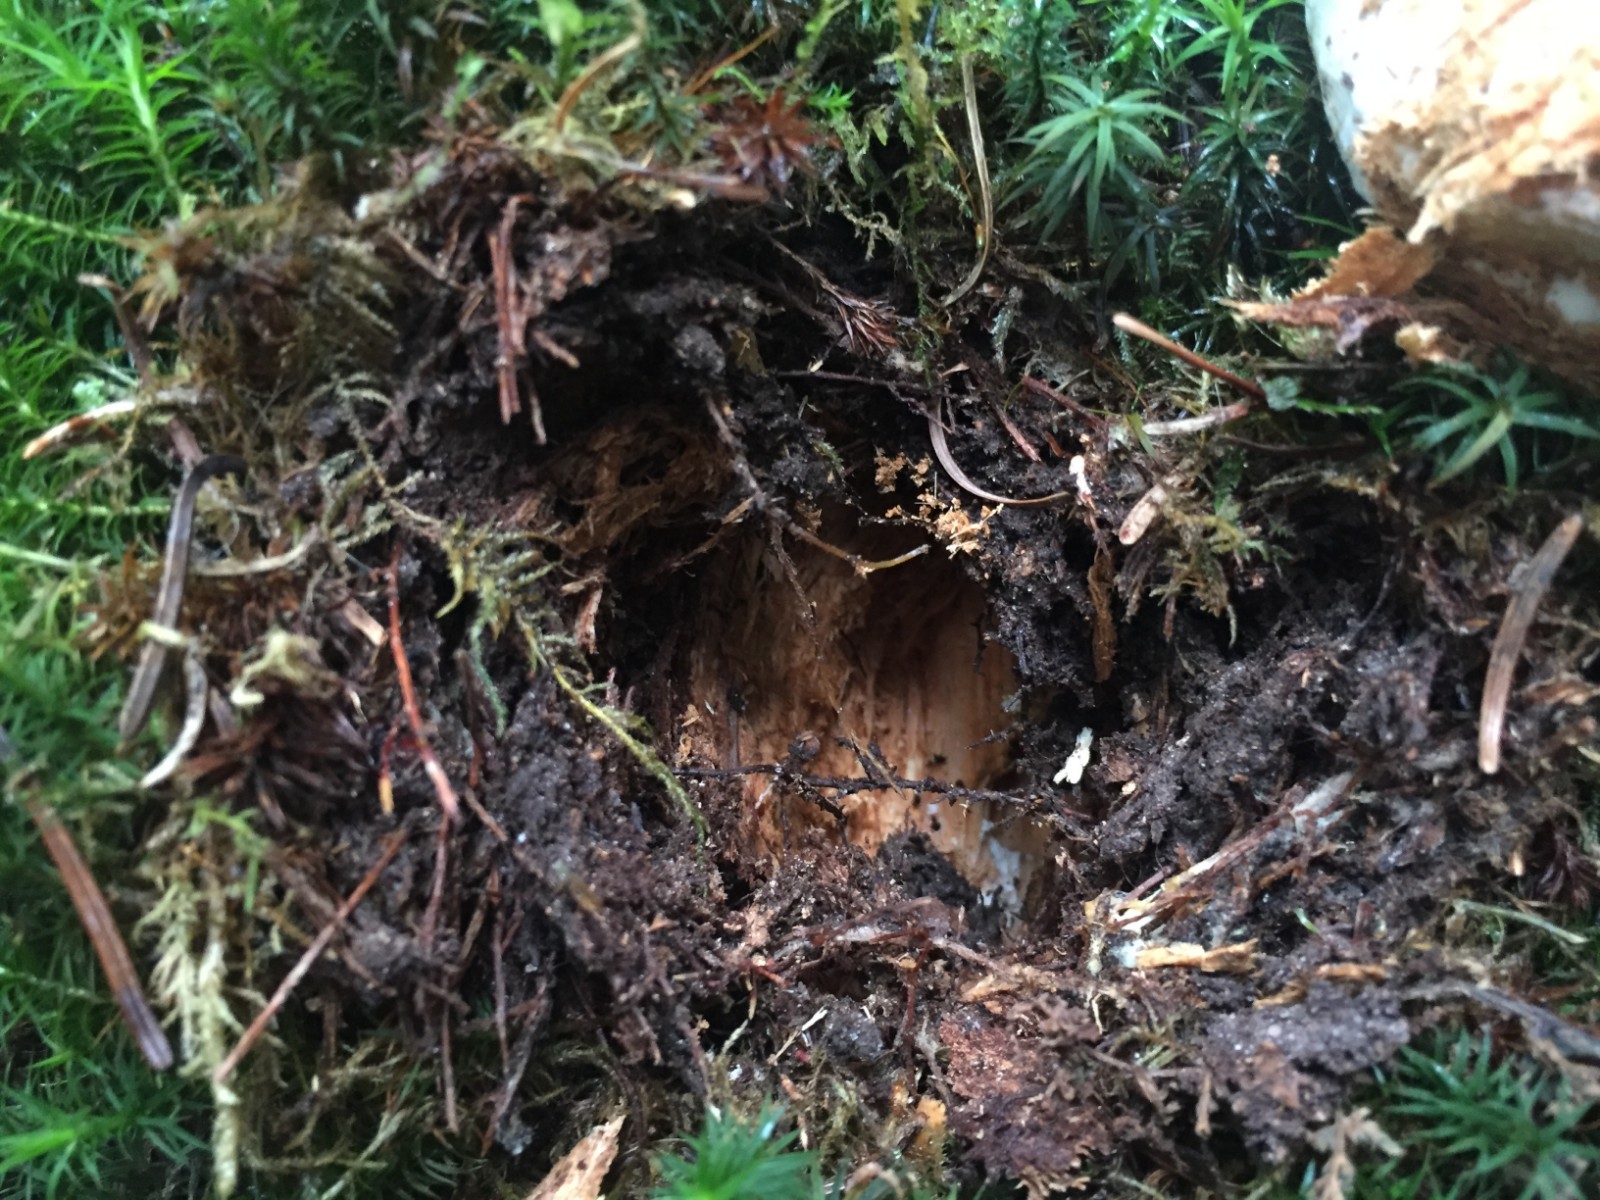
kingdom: Fungi
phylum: Basidiomycota
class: Agaricomycetes
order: Boletales
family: Boletaceae
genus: Boletus
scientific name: Boletus edulis
